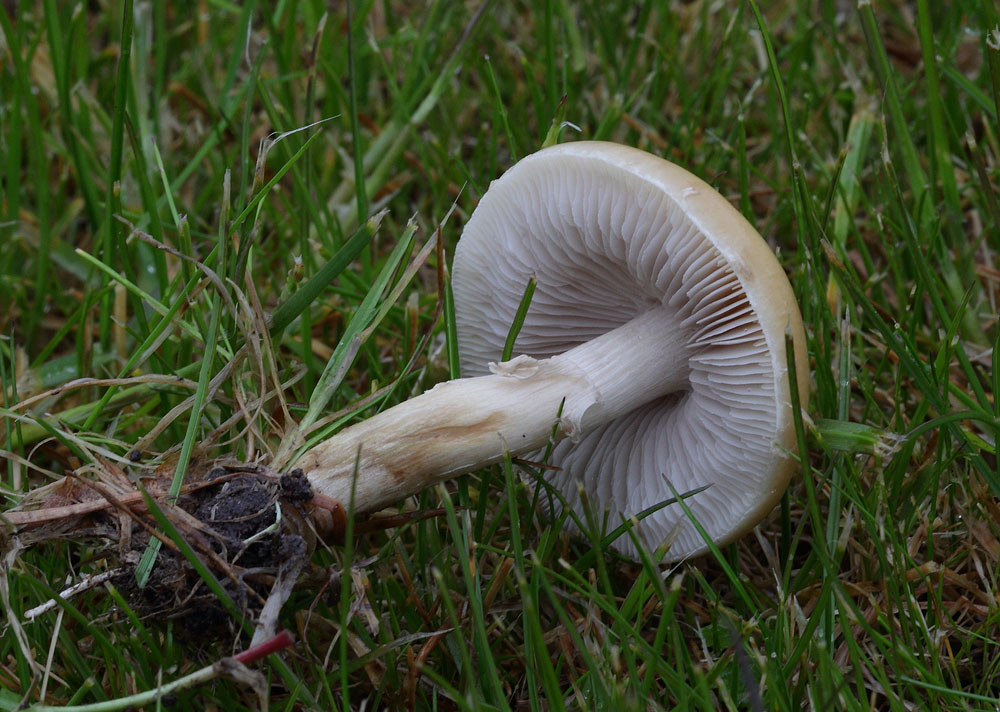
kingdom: Fungi
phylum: Basidiomycota
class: Agaricomycetes
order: Agaricales
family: Strophariaceae
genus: Agrocybe
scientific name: Agrocybe praecox
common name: tidlig agerhat
